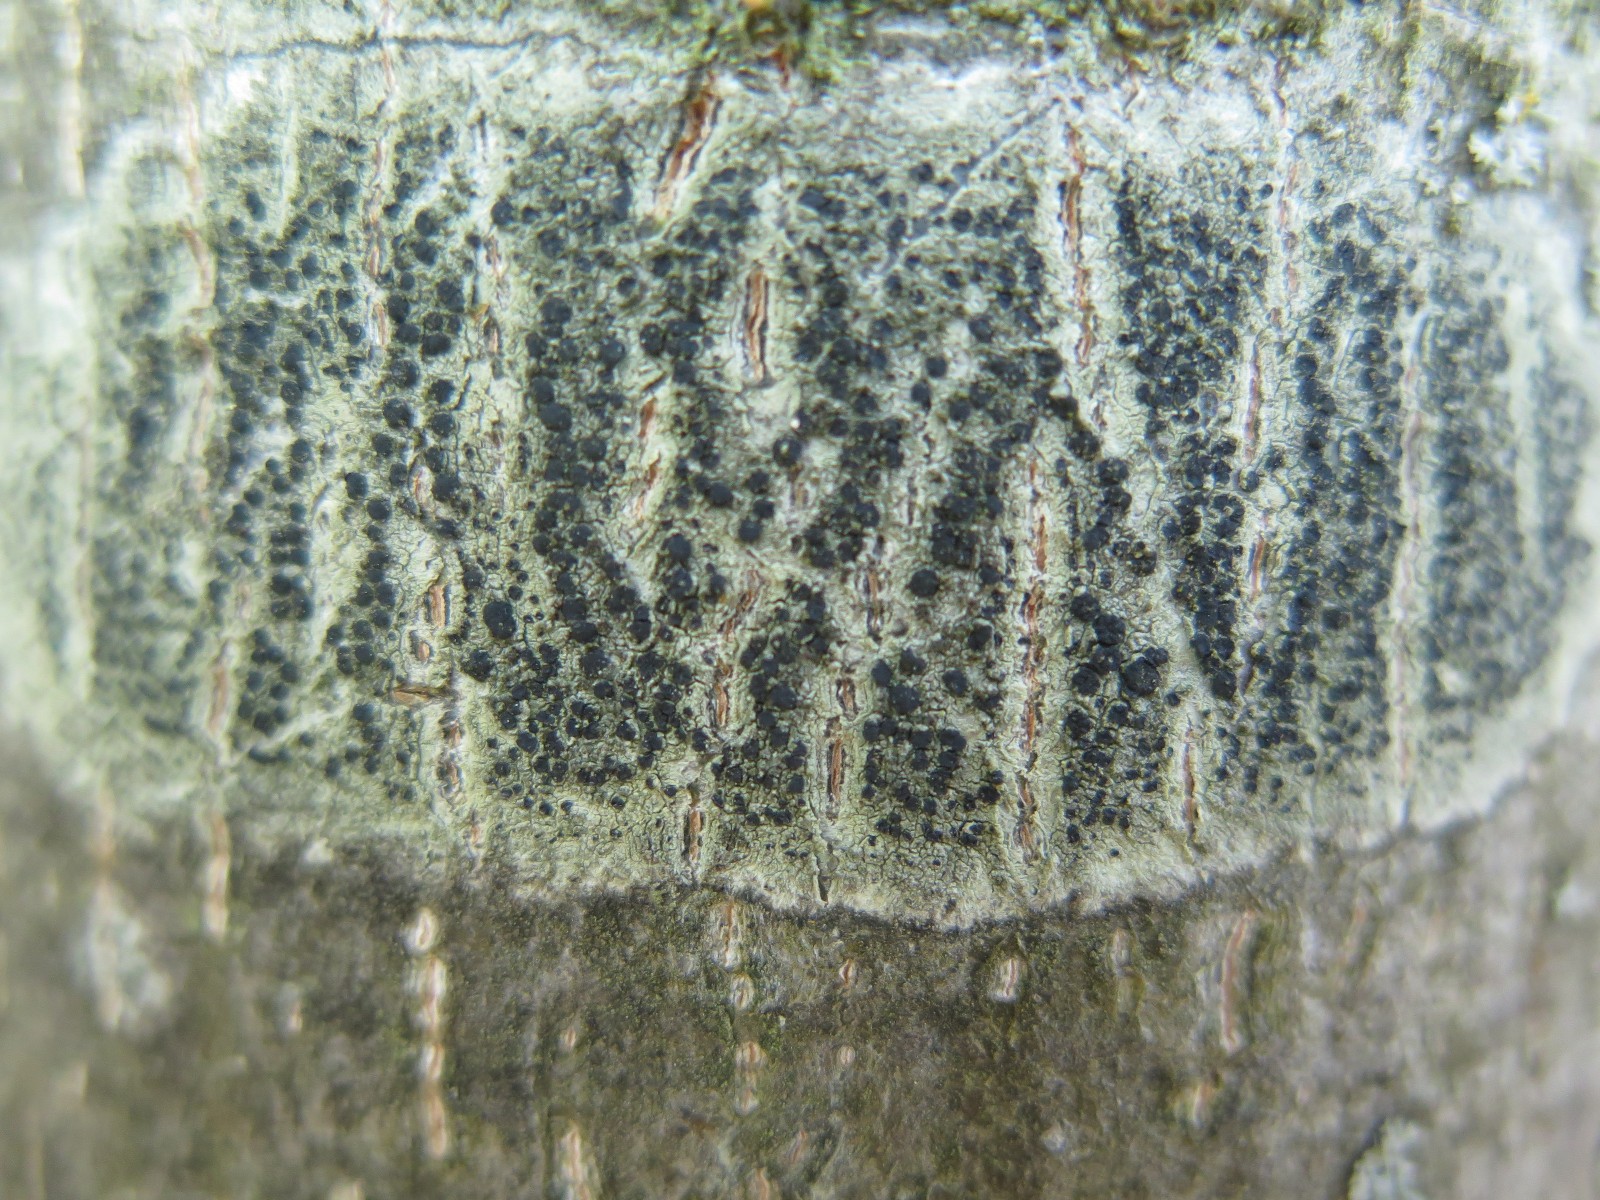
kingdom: Fungi
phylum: Ascomycota
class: Lecanoromycetes
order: Lecanorales
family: Lecanoraceae
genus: Lecidella
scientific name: Lecidella elaeochroma
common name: grågrøn skivelav
